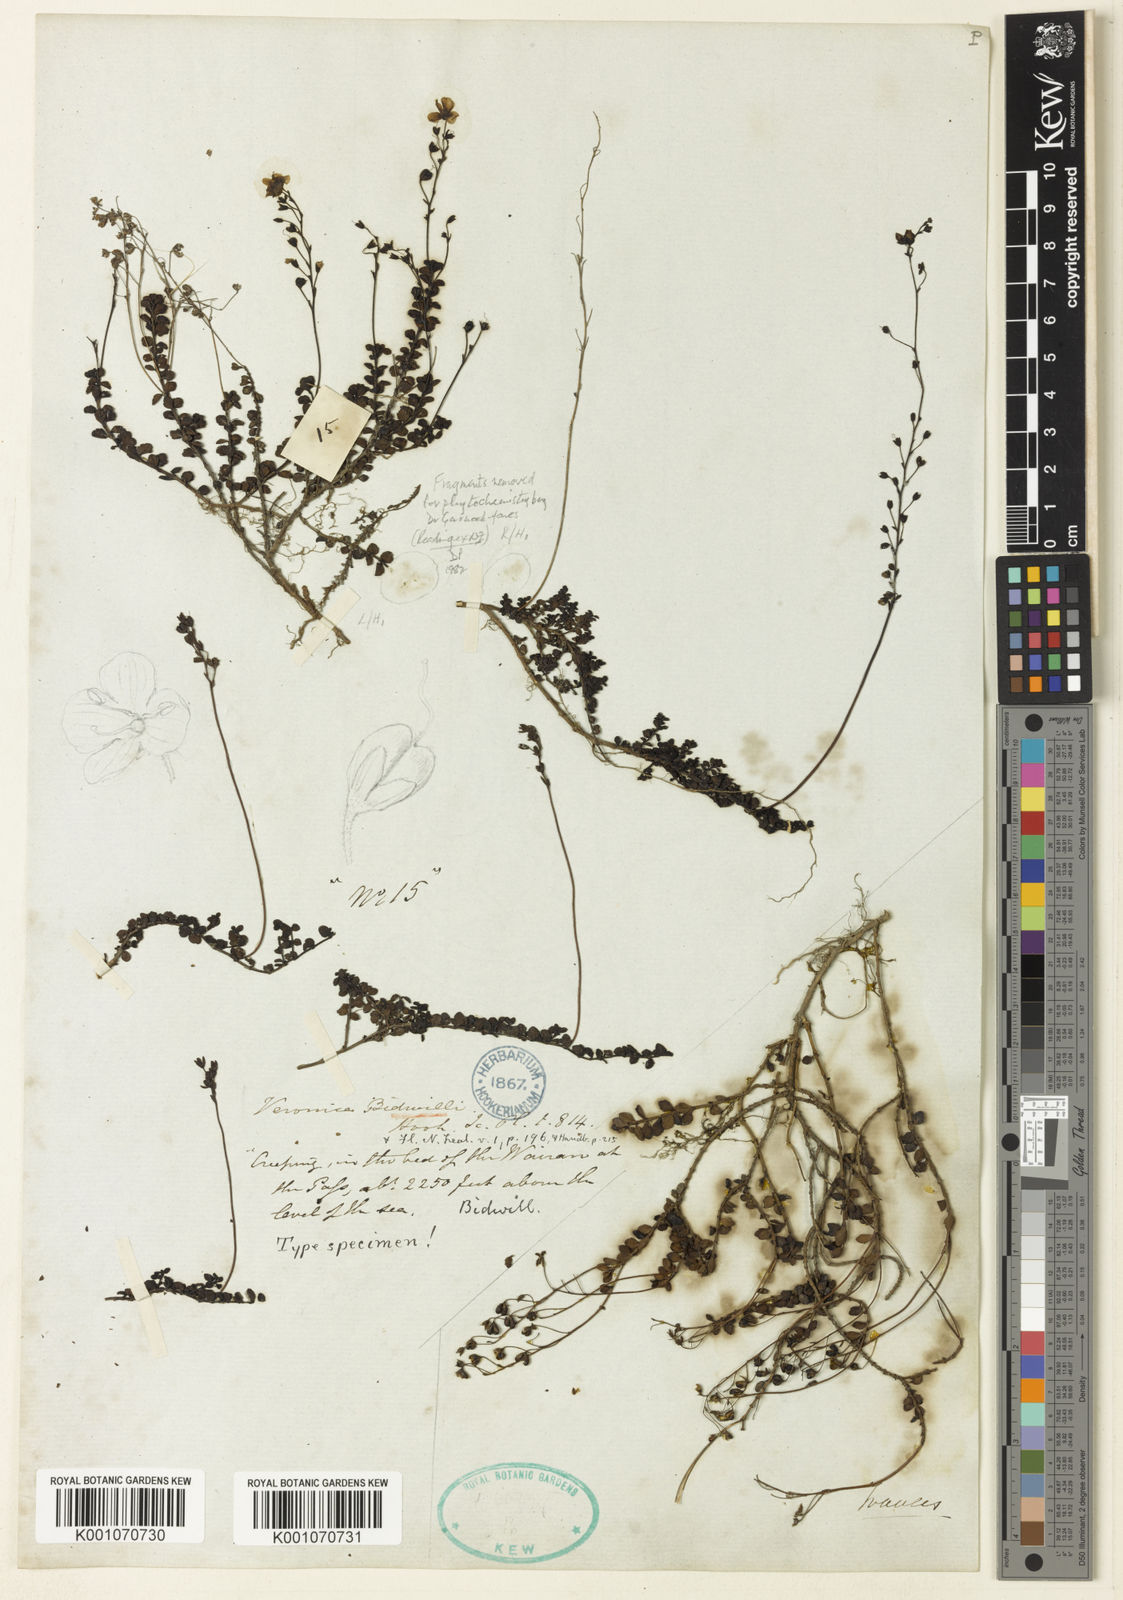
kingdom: Plantae
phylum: Tracheophyta
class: Magnoliopsida
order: Lamiales
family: Plantaginaceae
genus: Veronica
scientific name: Veronica bidwillii
